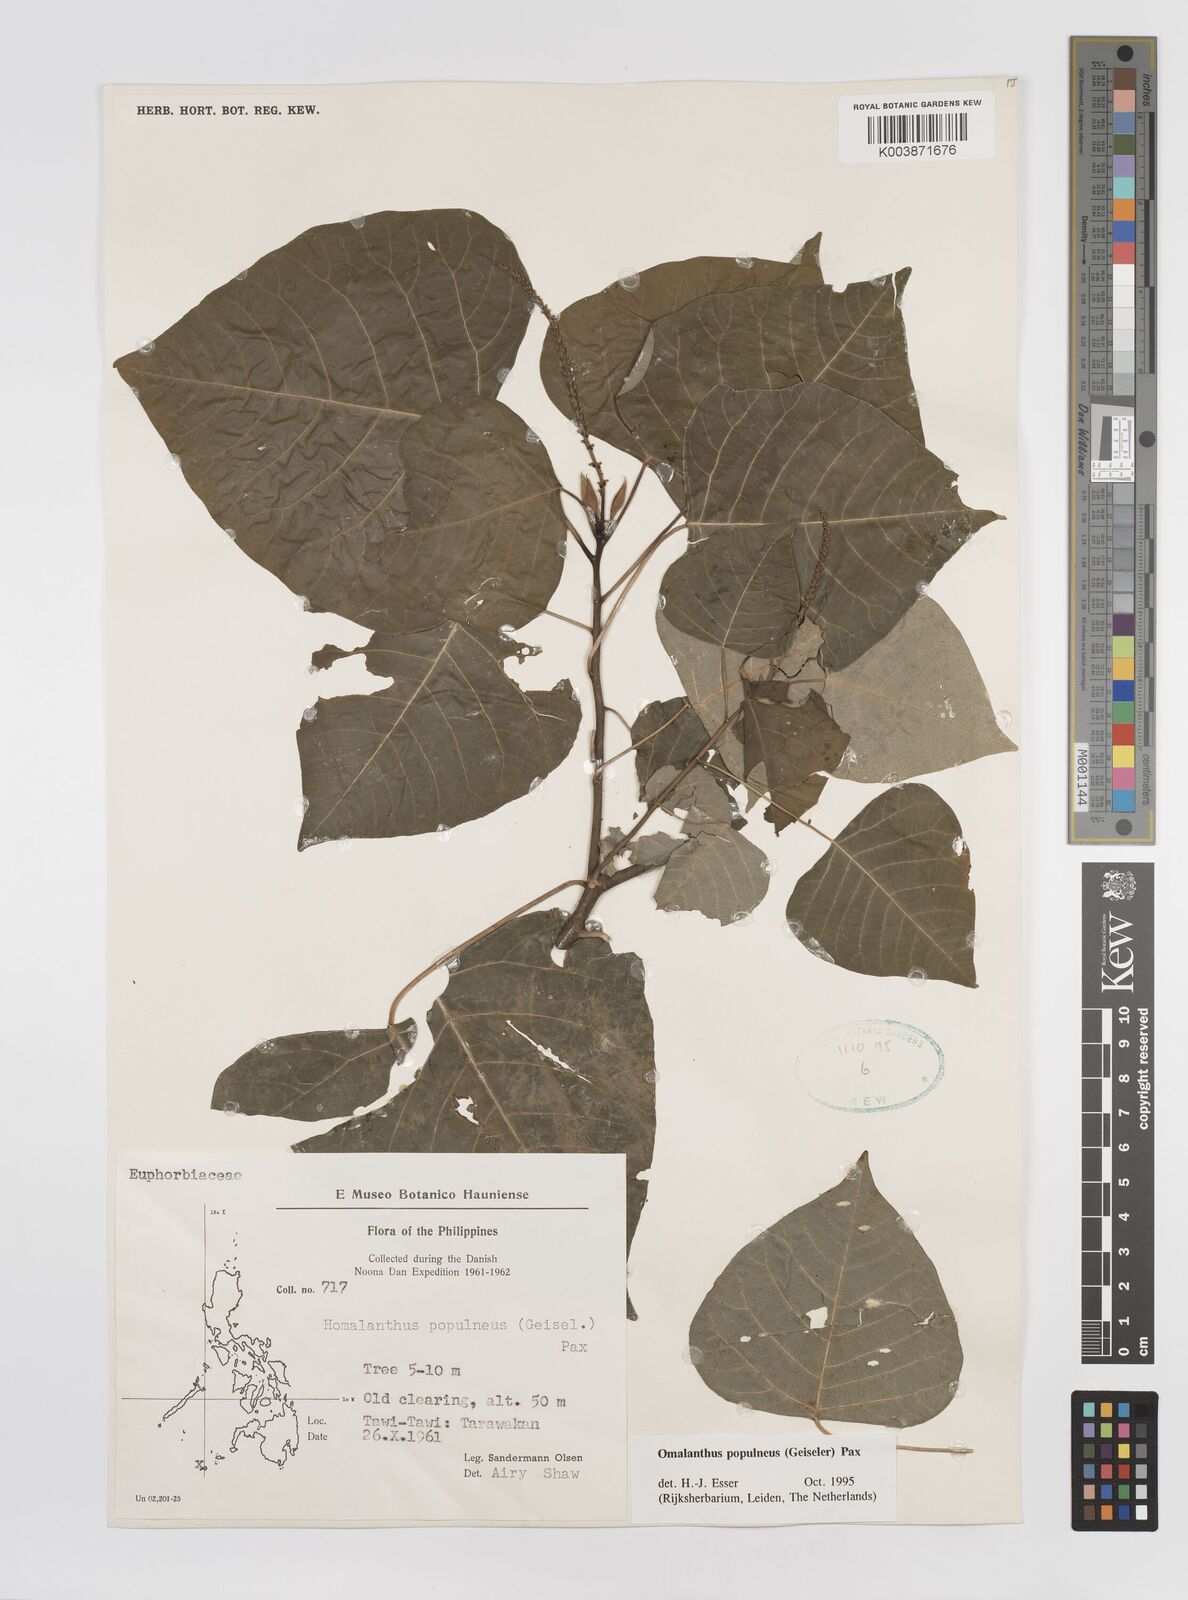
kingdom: Plantae
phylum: Tracheophyta
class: Magnoliopsida
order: Malpighiales
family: Euphorbiaceae
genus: Homalanthus
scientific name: Homalanthus populneus
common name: Spurge
